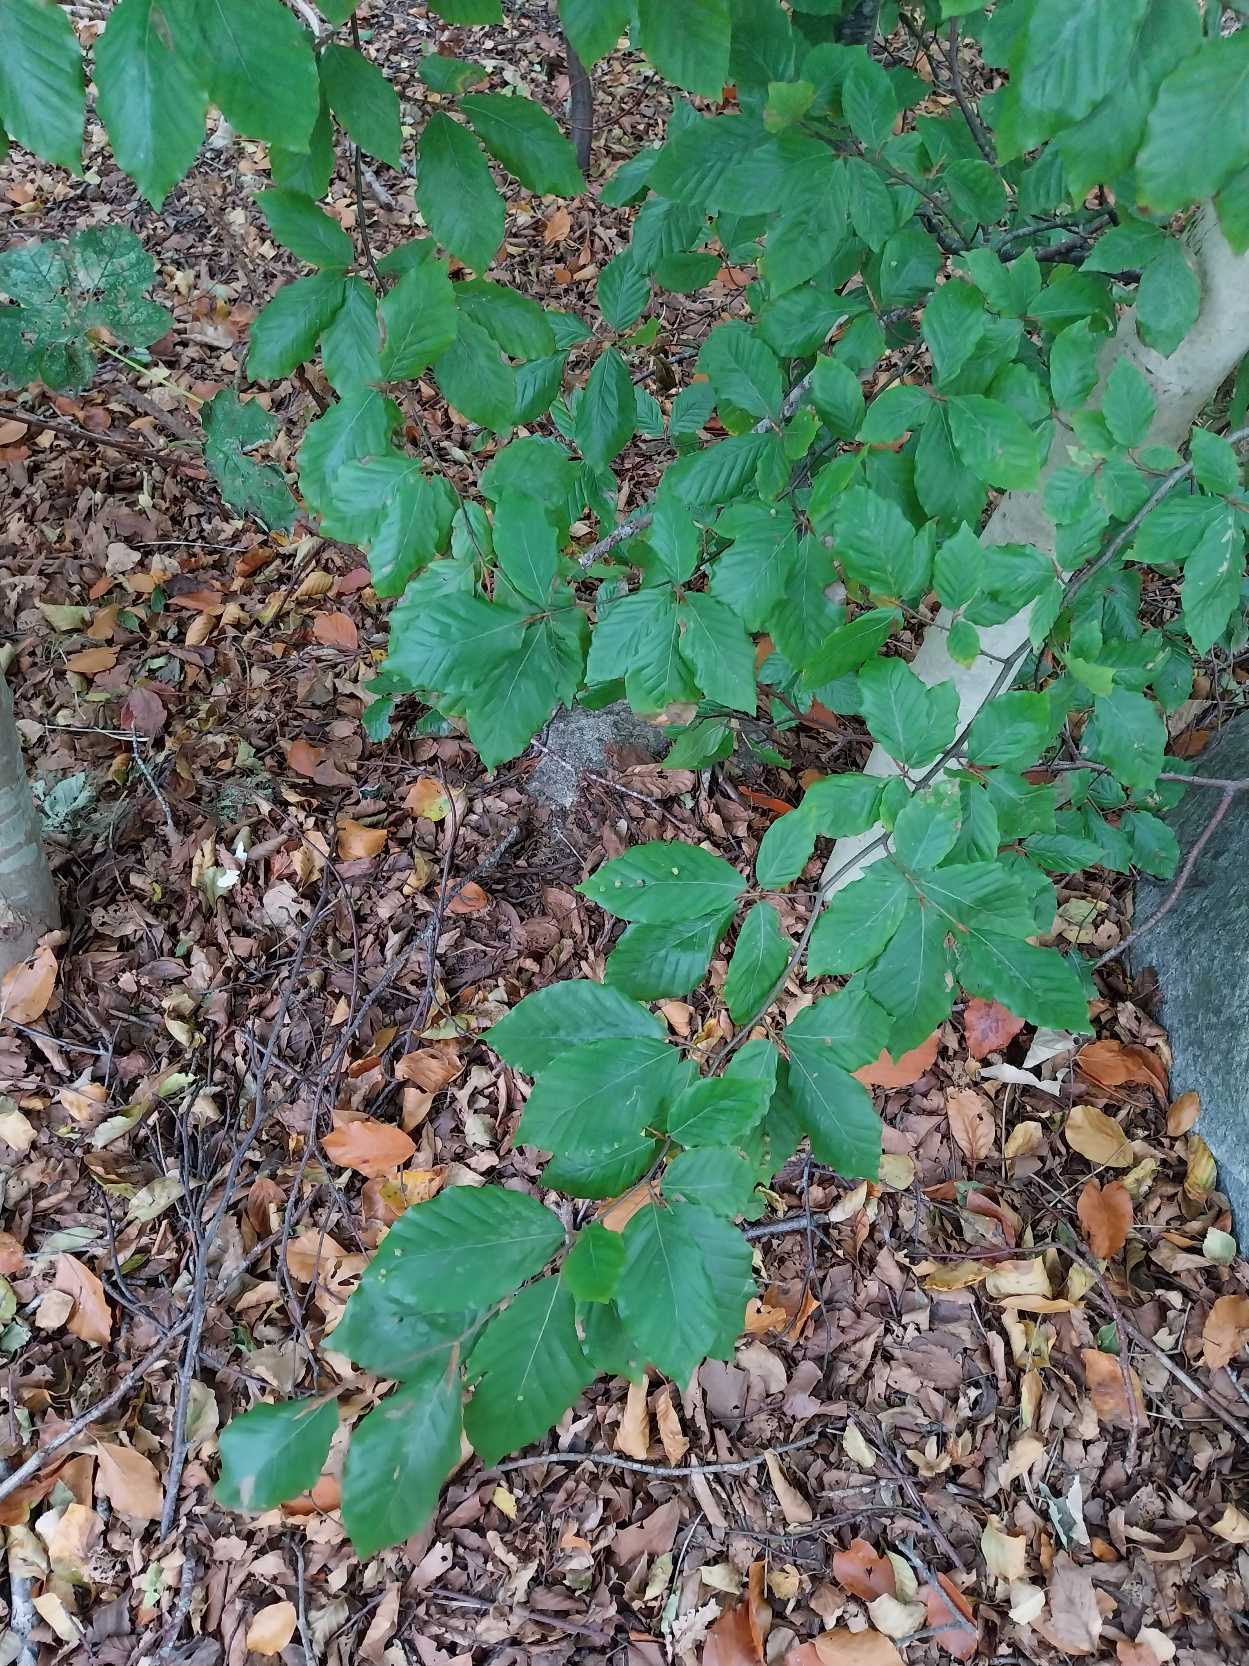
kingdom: Plantae
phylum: Tracheophyta
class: Magnoliopsida
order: Fagales
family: Fagaceae
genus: Fagus
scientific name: Fagus sylvatica
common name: Bøg
